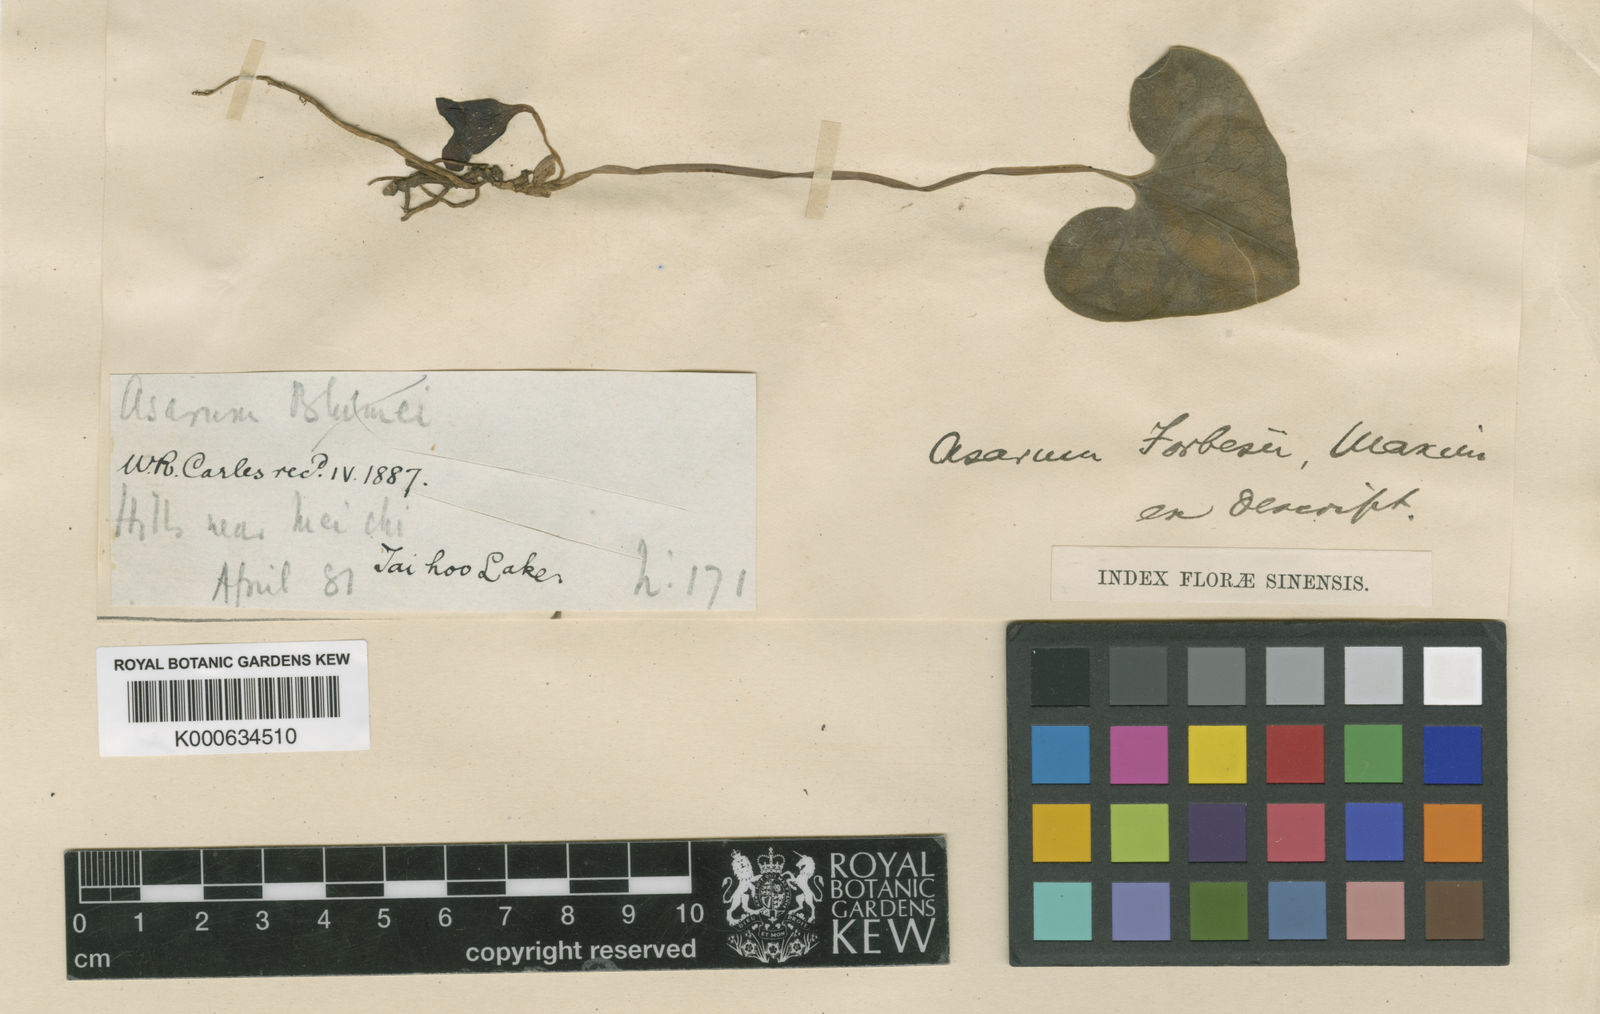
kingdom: Plantae
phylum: Tracheophyta
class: Magnoliopsida
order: Piperales
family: Aristolochiaceae
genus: Asarum
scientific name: Asarum forbesii
